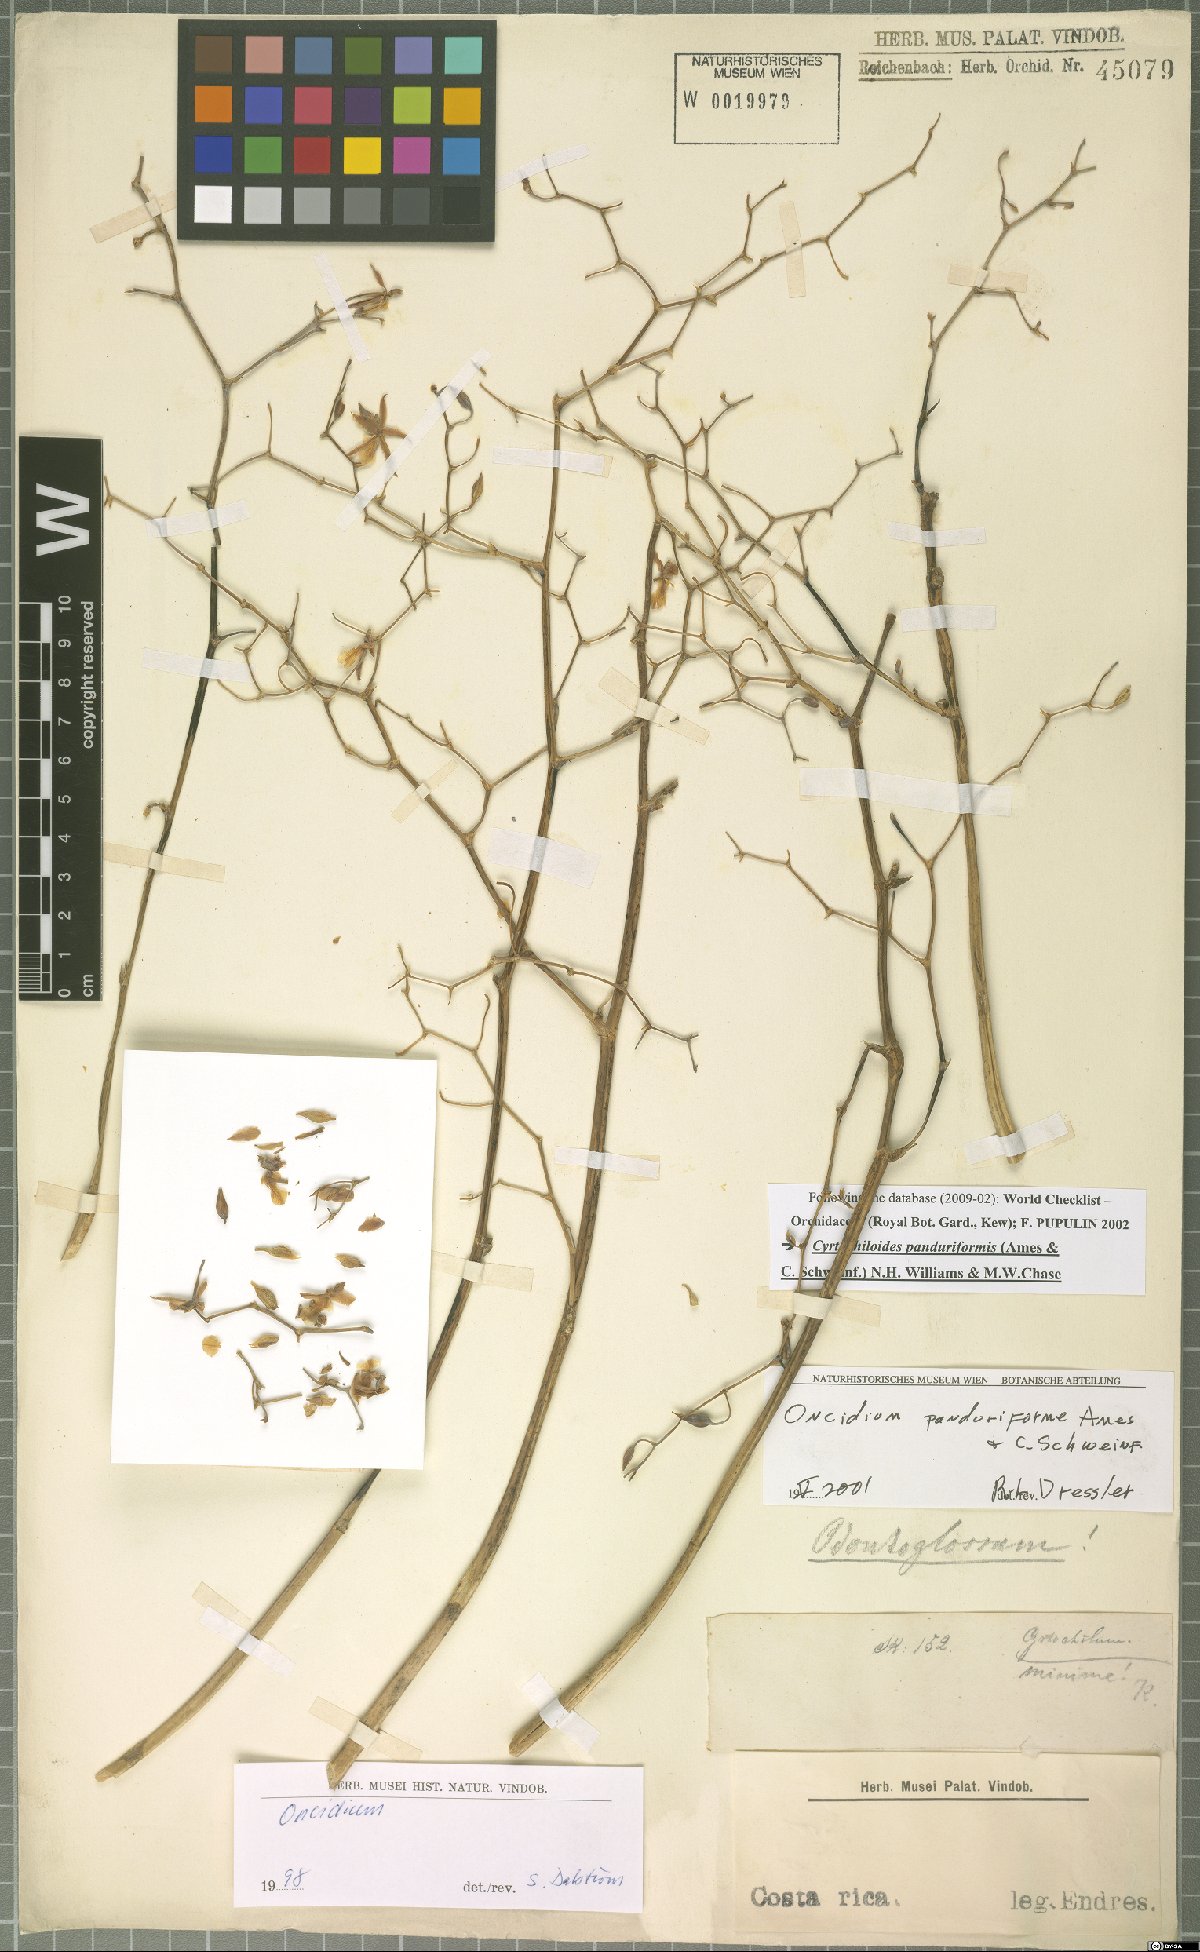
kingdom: Plantae
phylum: Tracheophyta
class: Liliopsida
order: Asparagales
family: Orchidaceae
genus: Cyrtochiloides
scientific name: Cyrtochiloides panduriformis
